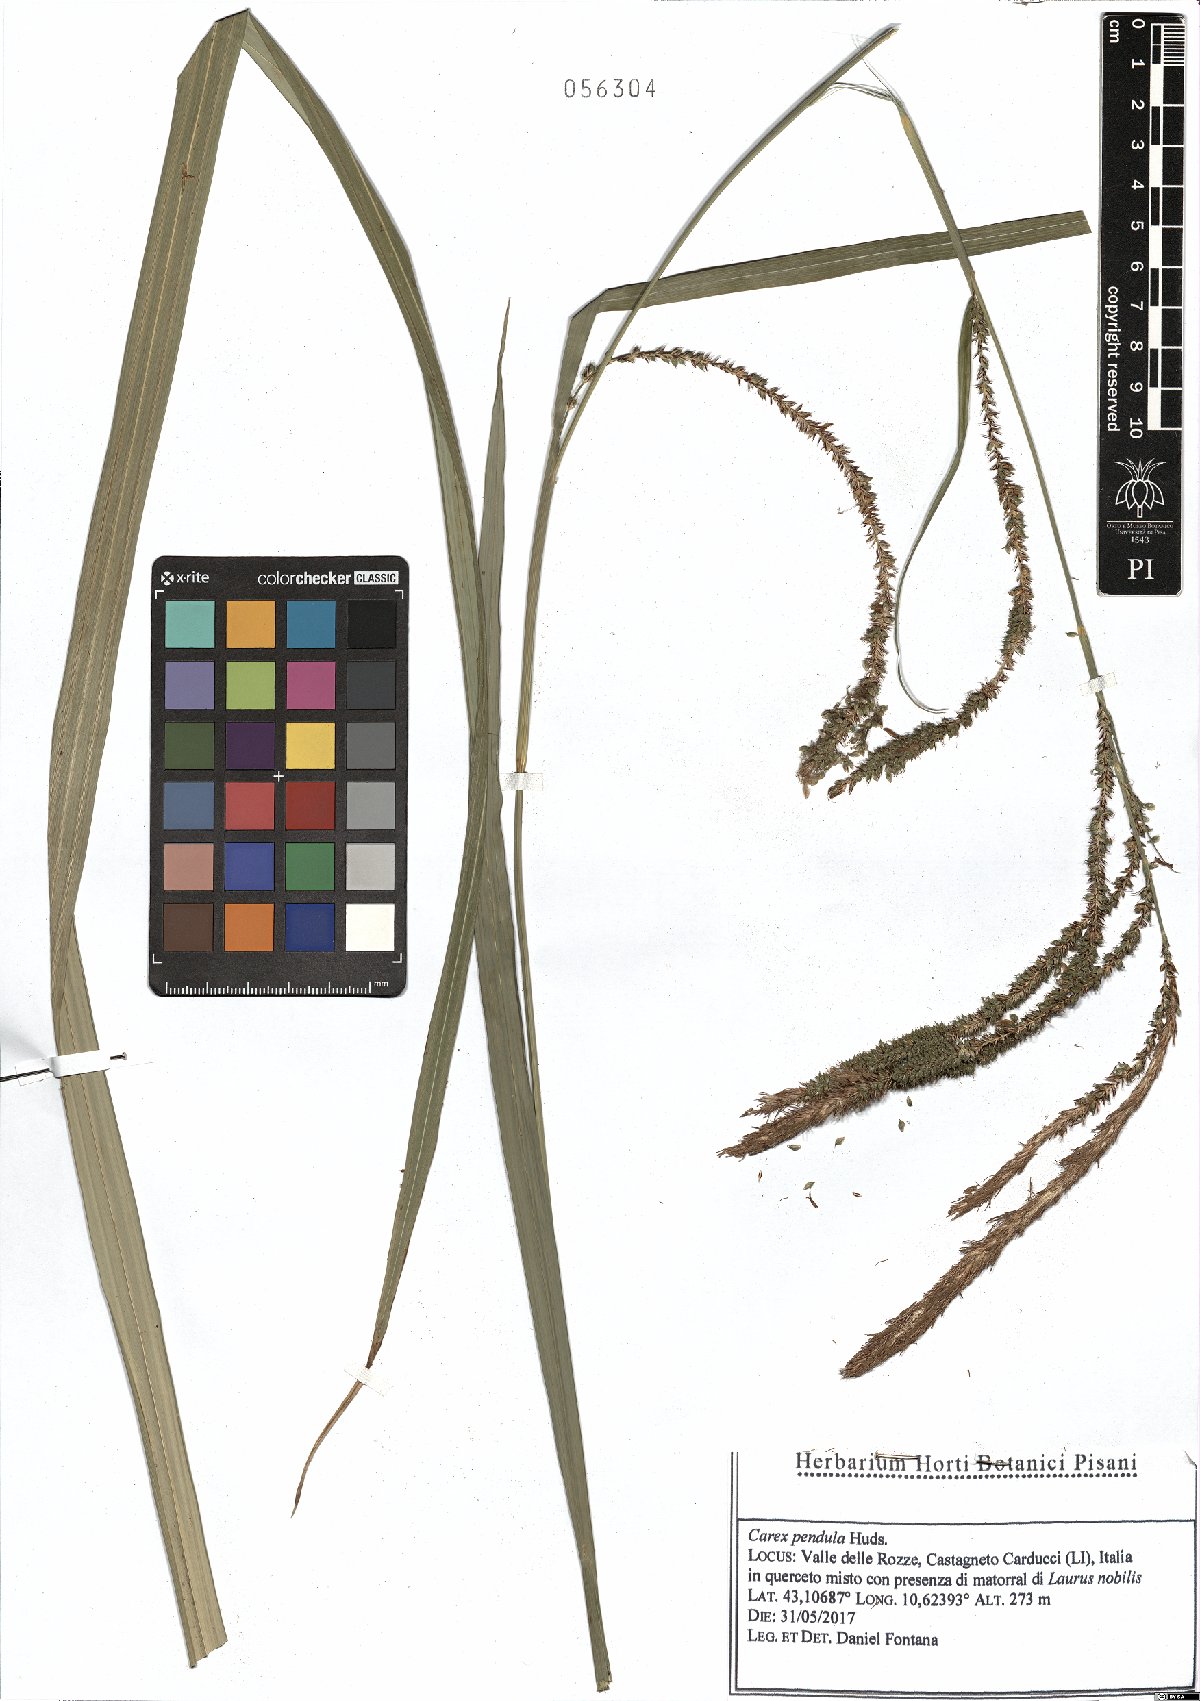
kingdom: Plantae
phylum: Tracheophyta
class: Liliopsida
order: Poales
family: Cyperaceae
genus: Carex
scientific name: Carex pendula
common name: Pendulous sedge
